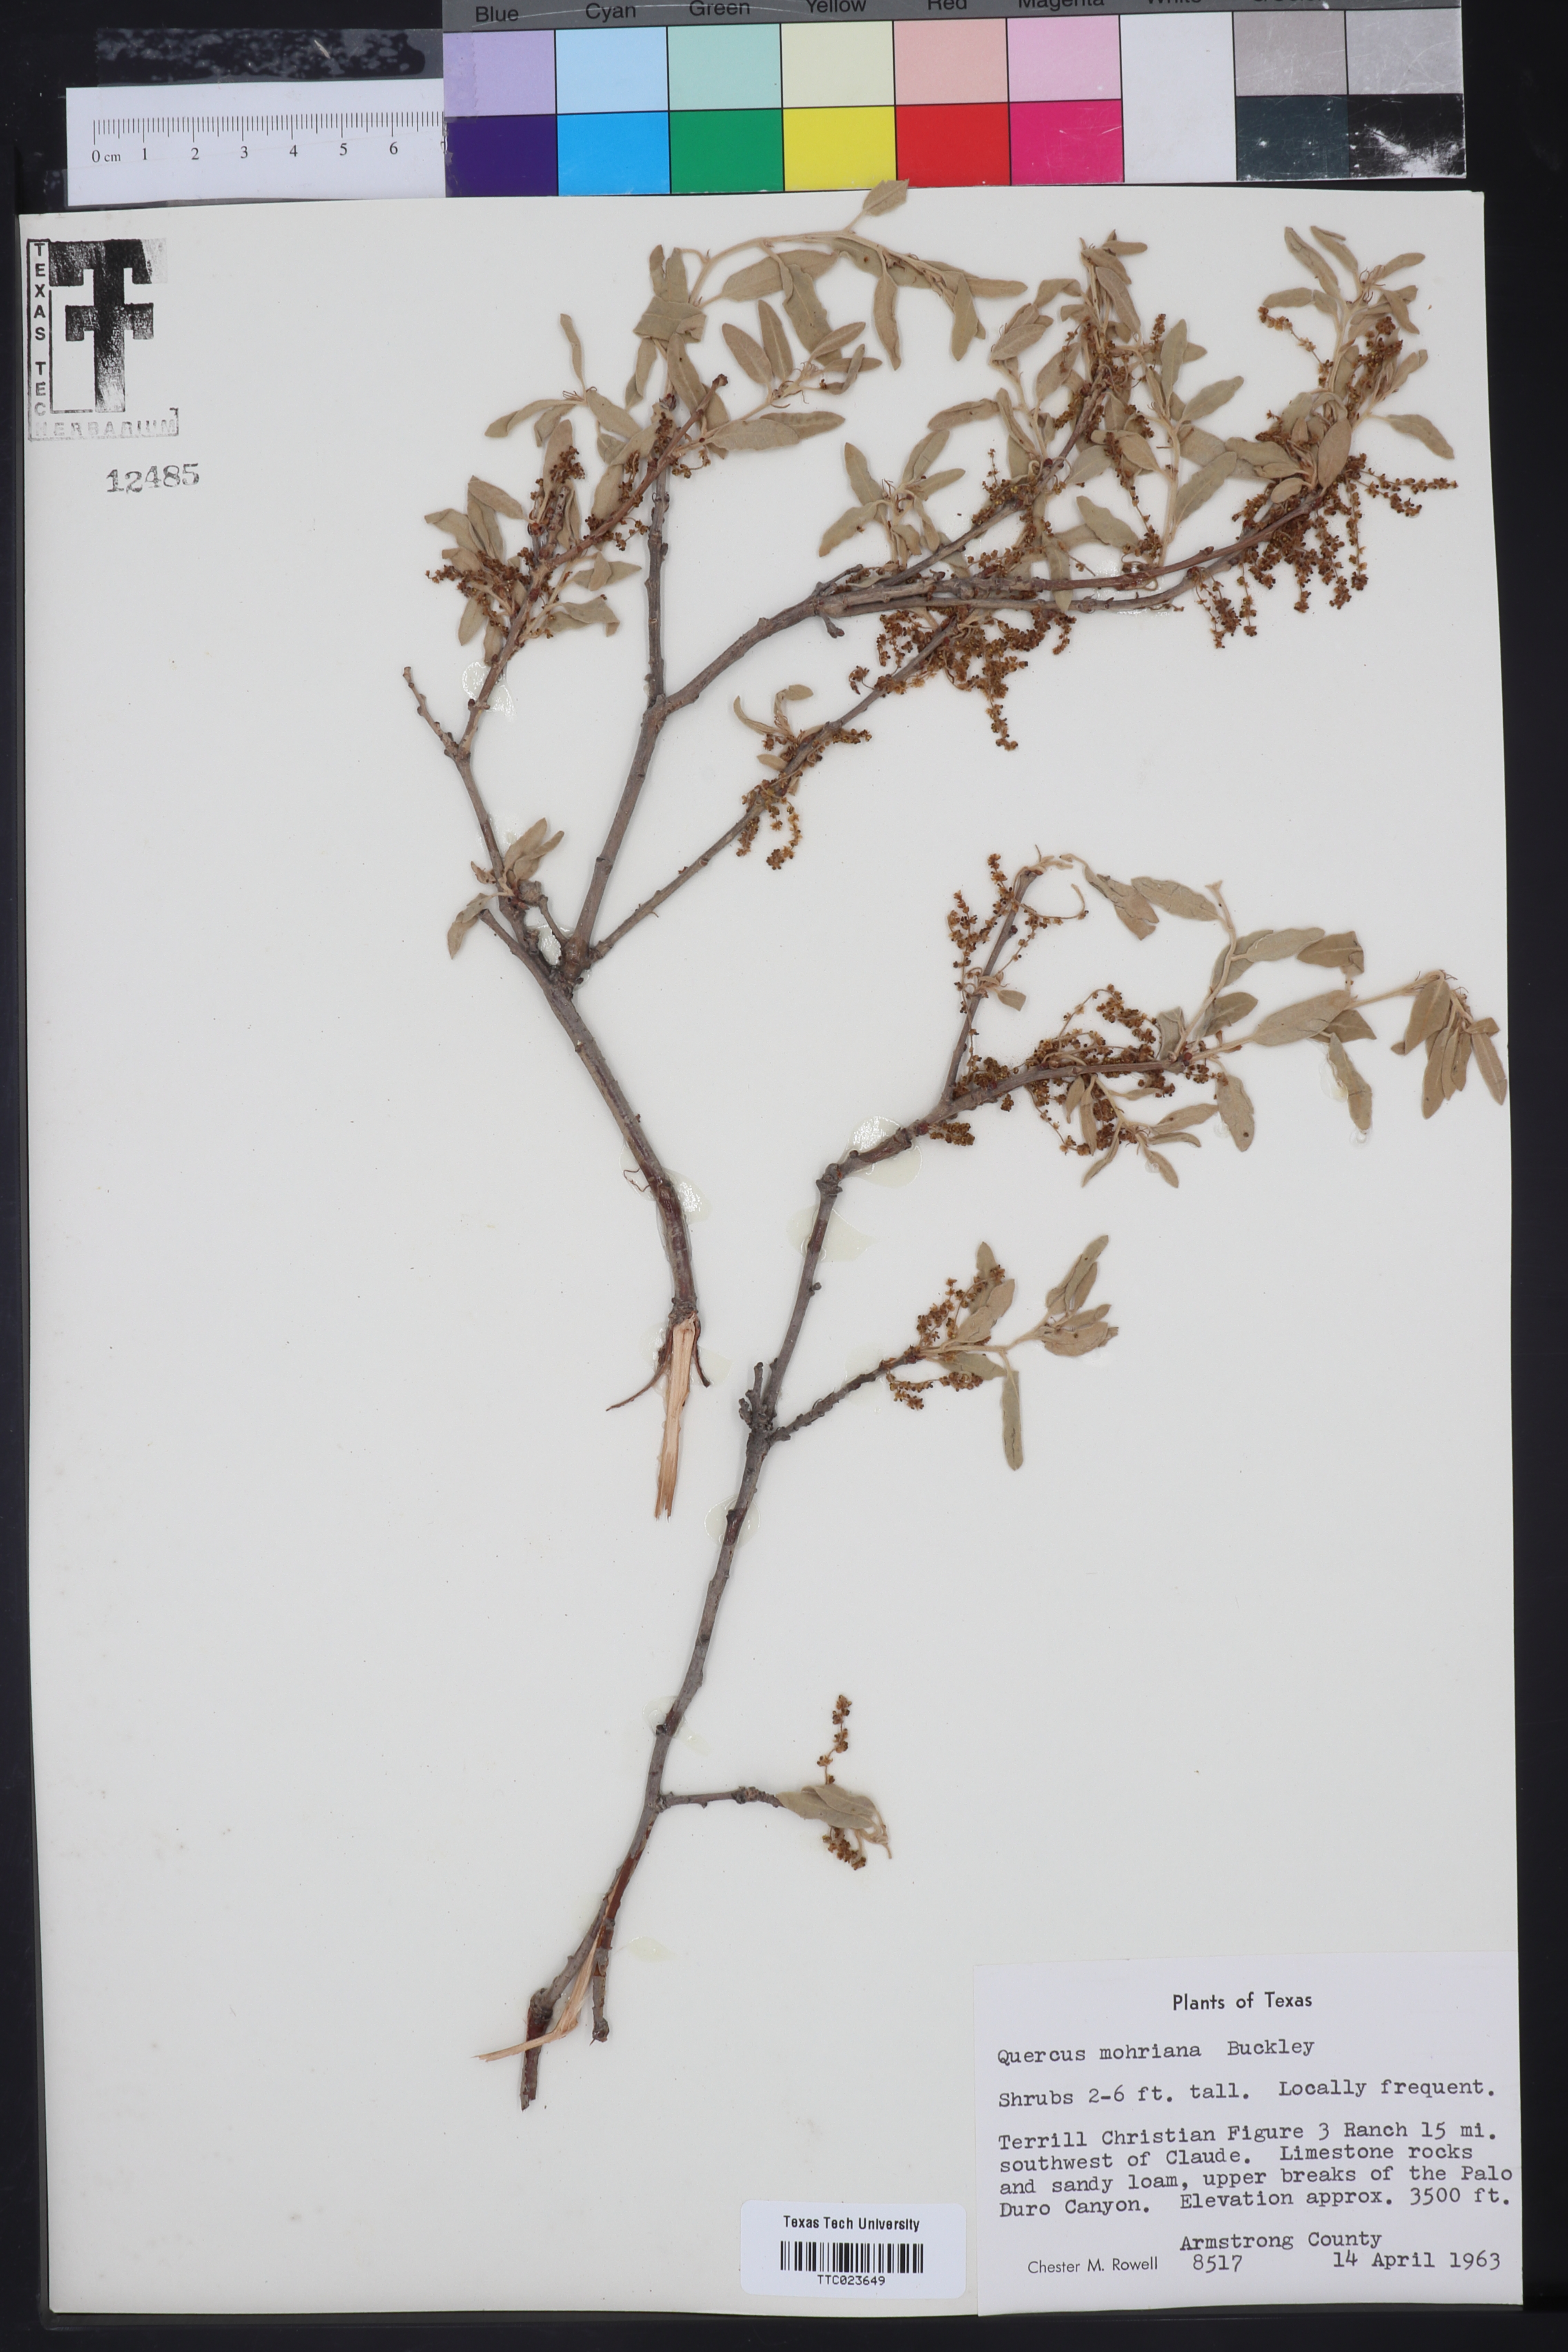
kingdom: Plantae
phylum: Tracheophyta
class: Magnoliopsida
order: Fagales
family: Fagaceae
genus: Quercus
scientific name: Quercus mohriana
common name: Mohr oak
